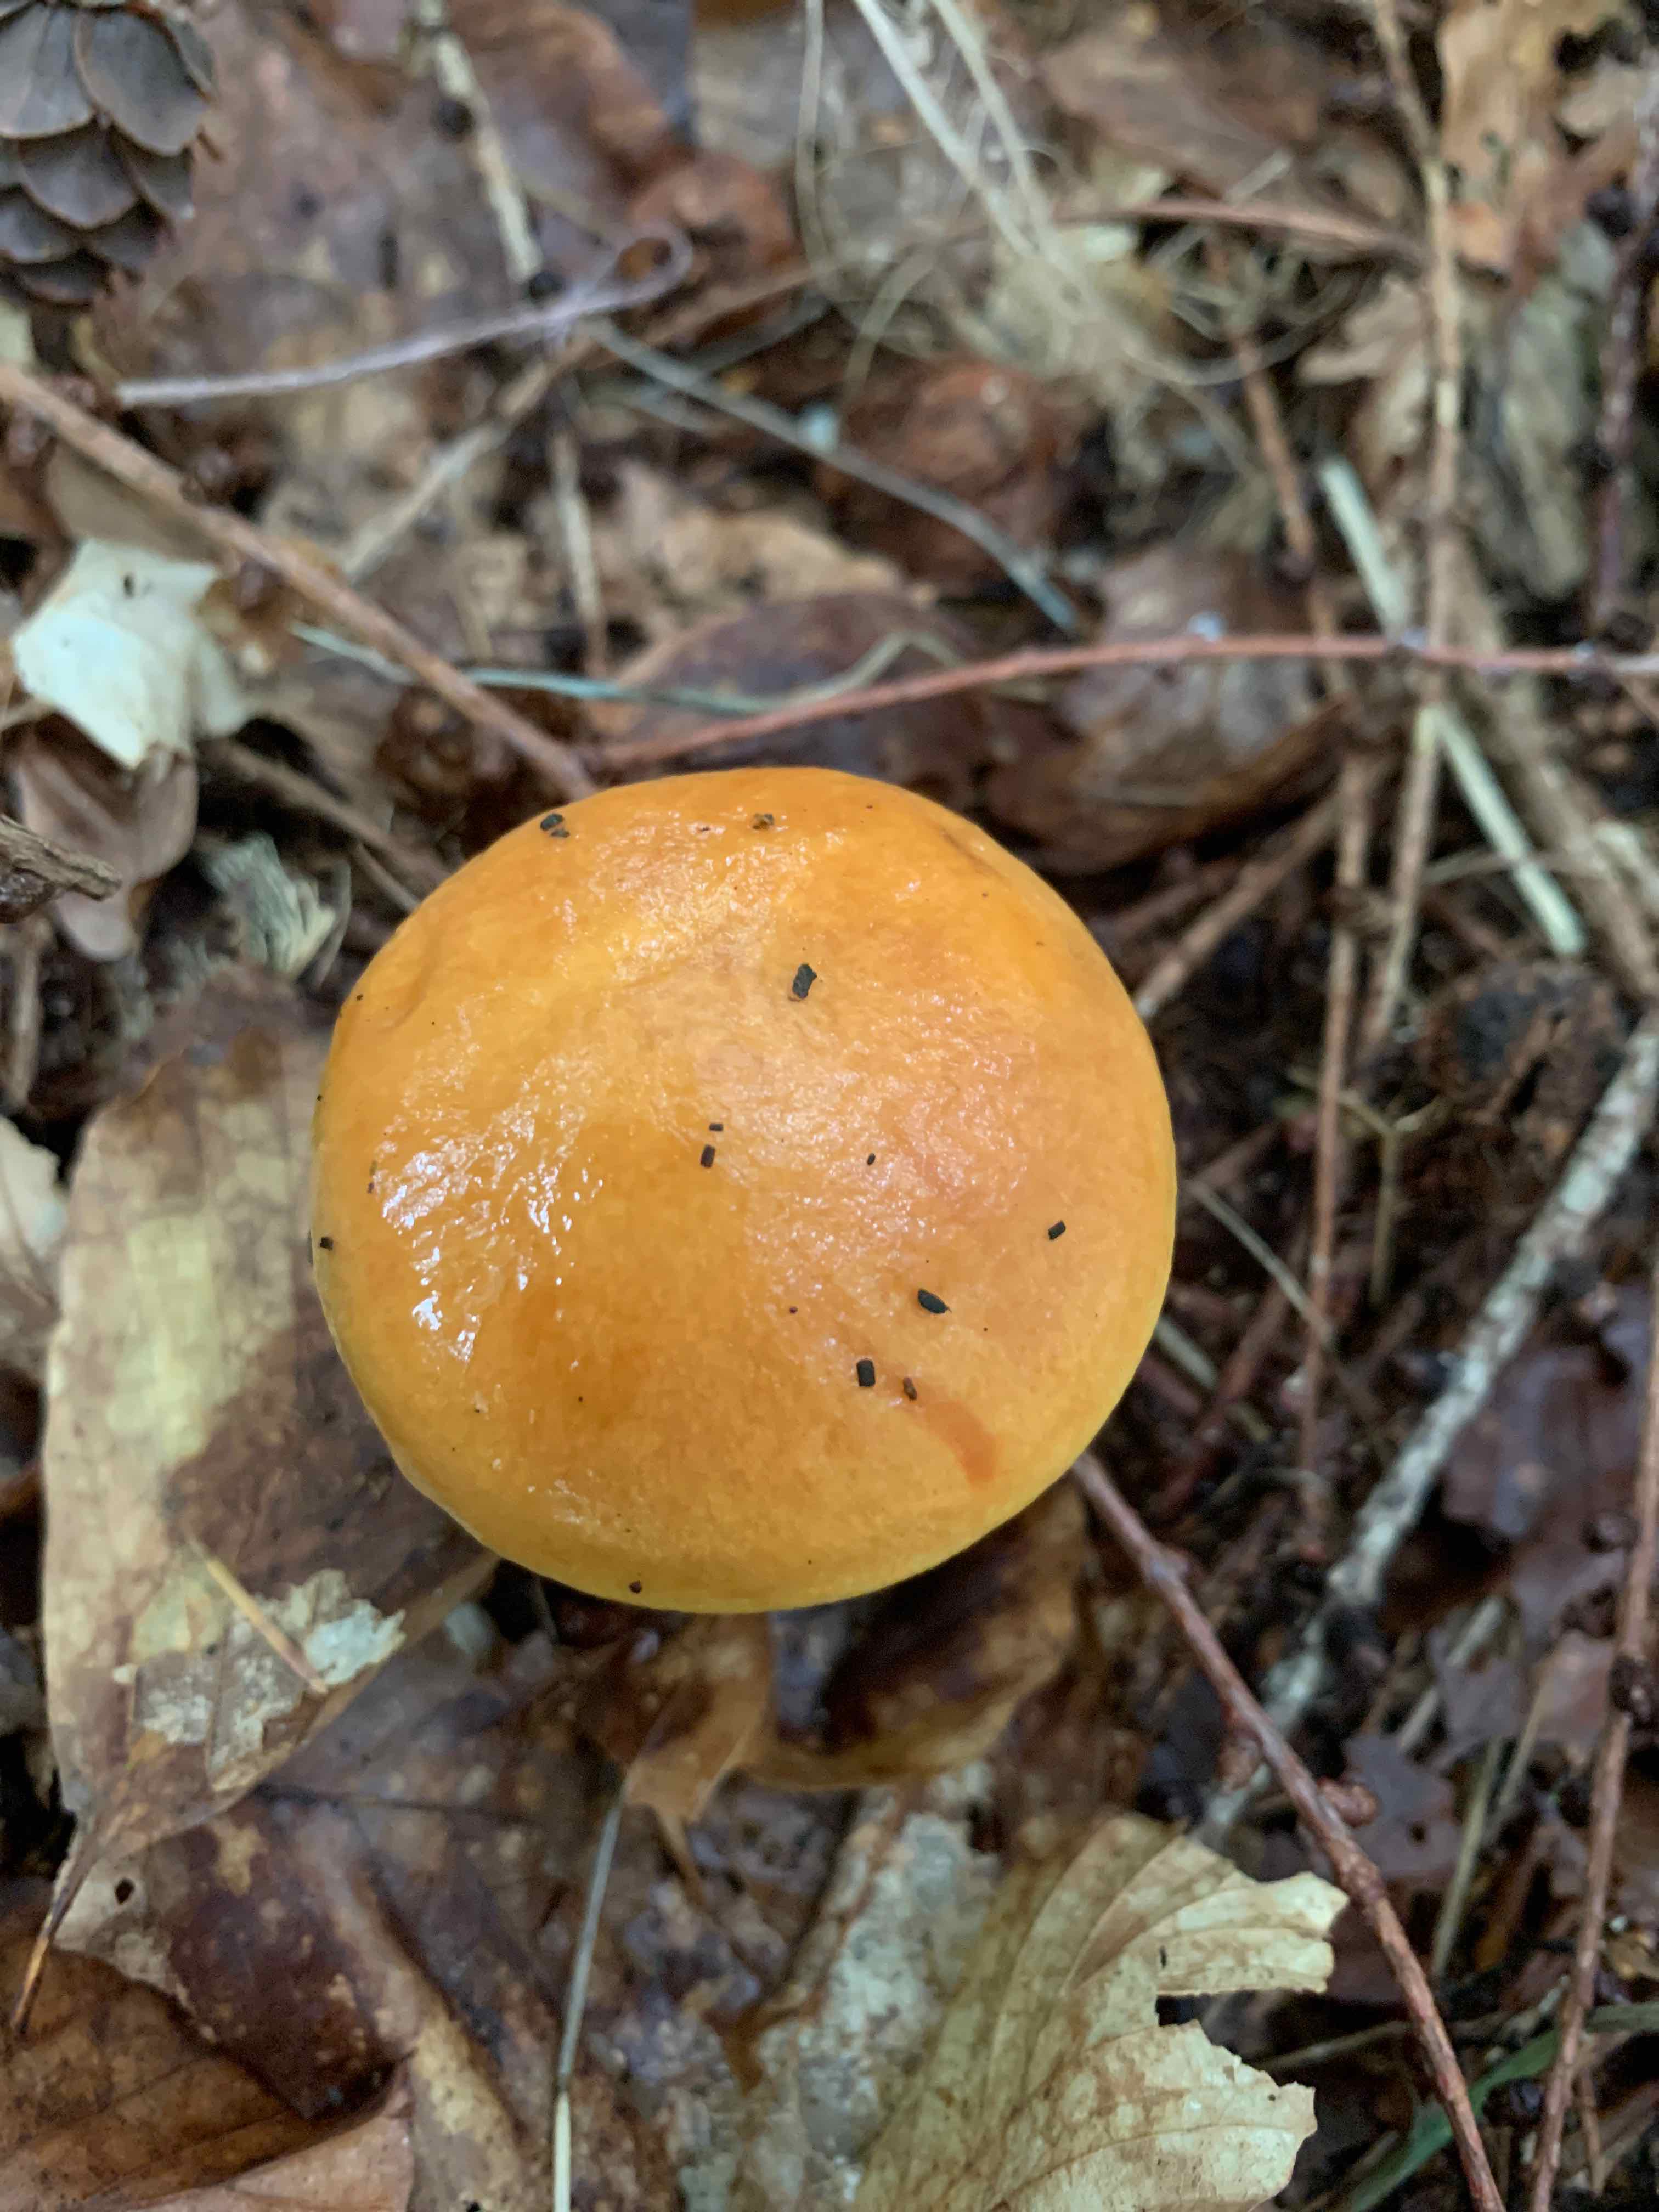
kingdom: Fungi
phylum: Basidiomycota
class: Agaricomycetes
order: Boletales
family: Suillaceae
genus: Suillus
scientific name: Suillus grevillei
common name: lærke-slimrørhat
